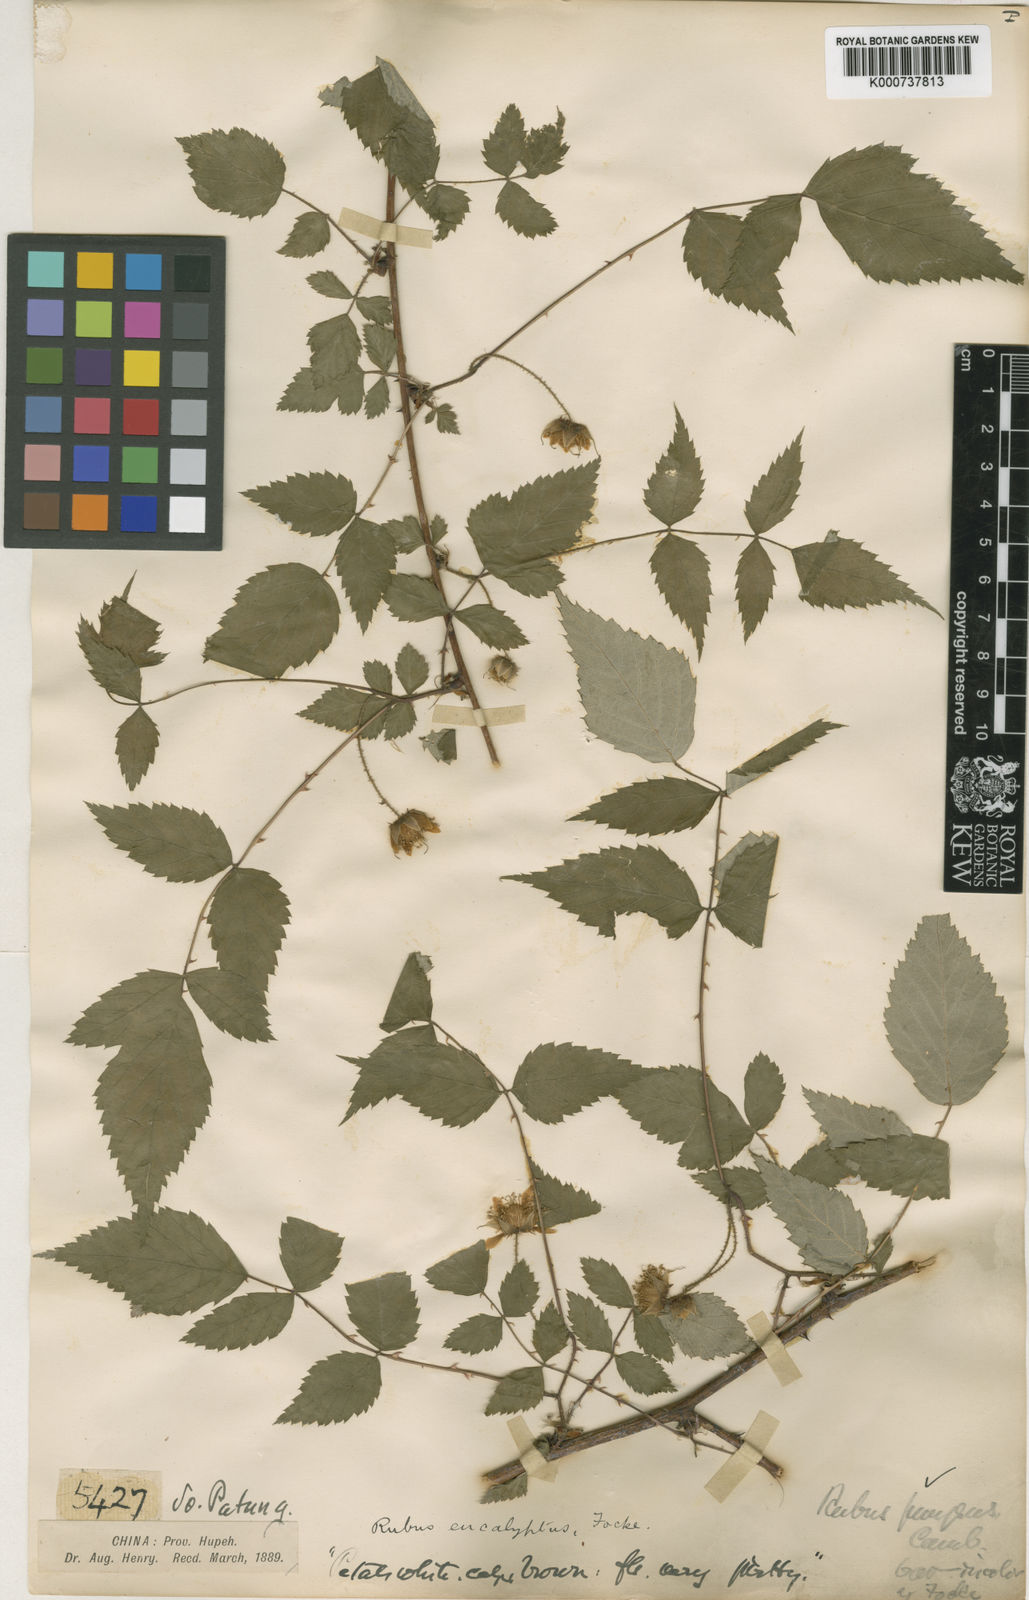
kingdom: Plantae
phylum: Tracheophyta
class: Magnoliopsida
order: Rosales
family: Rosaceae
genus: Rubus
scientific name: Rubus eucalyptus
